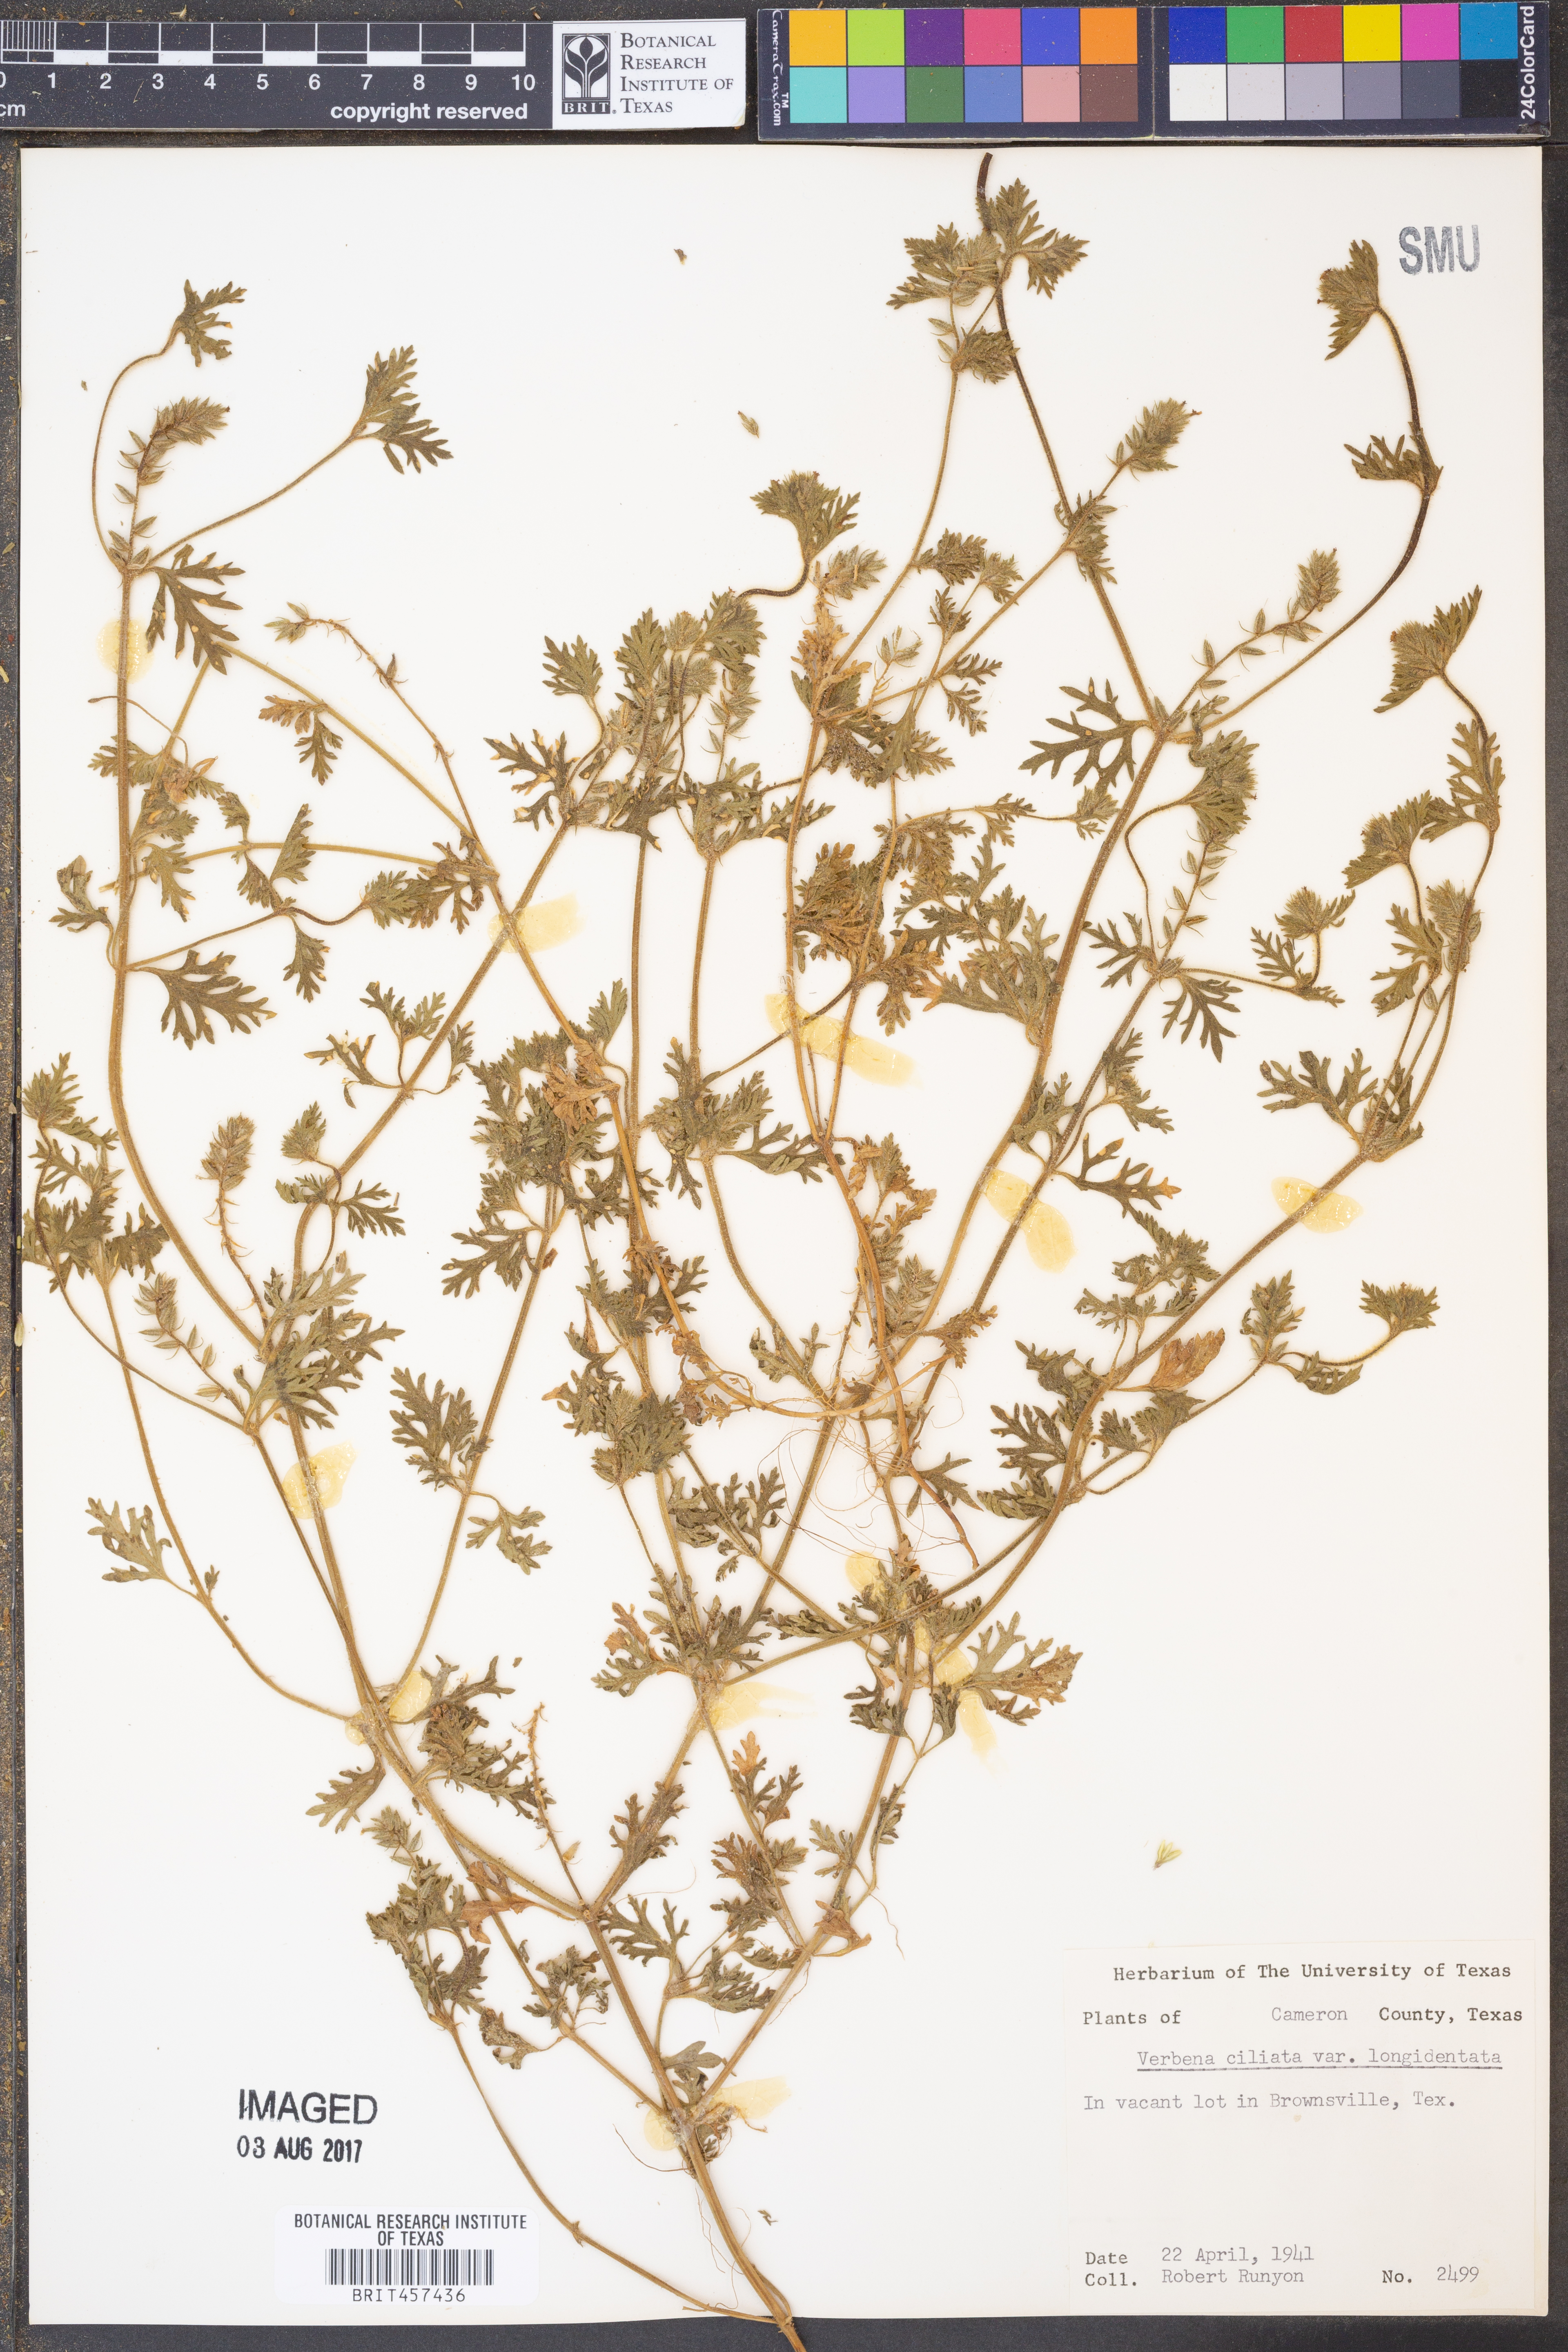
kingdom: Plantae
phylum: Tracheophyta
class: Magnoliopsida
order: Lamiales
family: Verbenaceae
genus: Verbena
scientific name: Verbena polyantha
